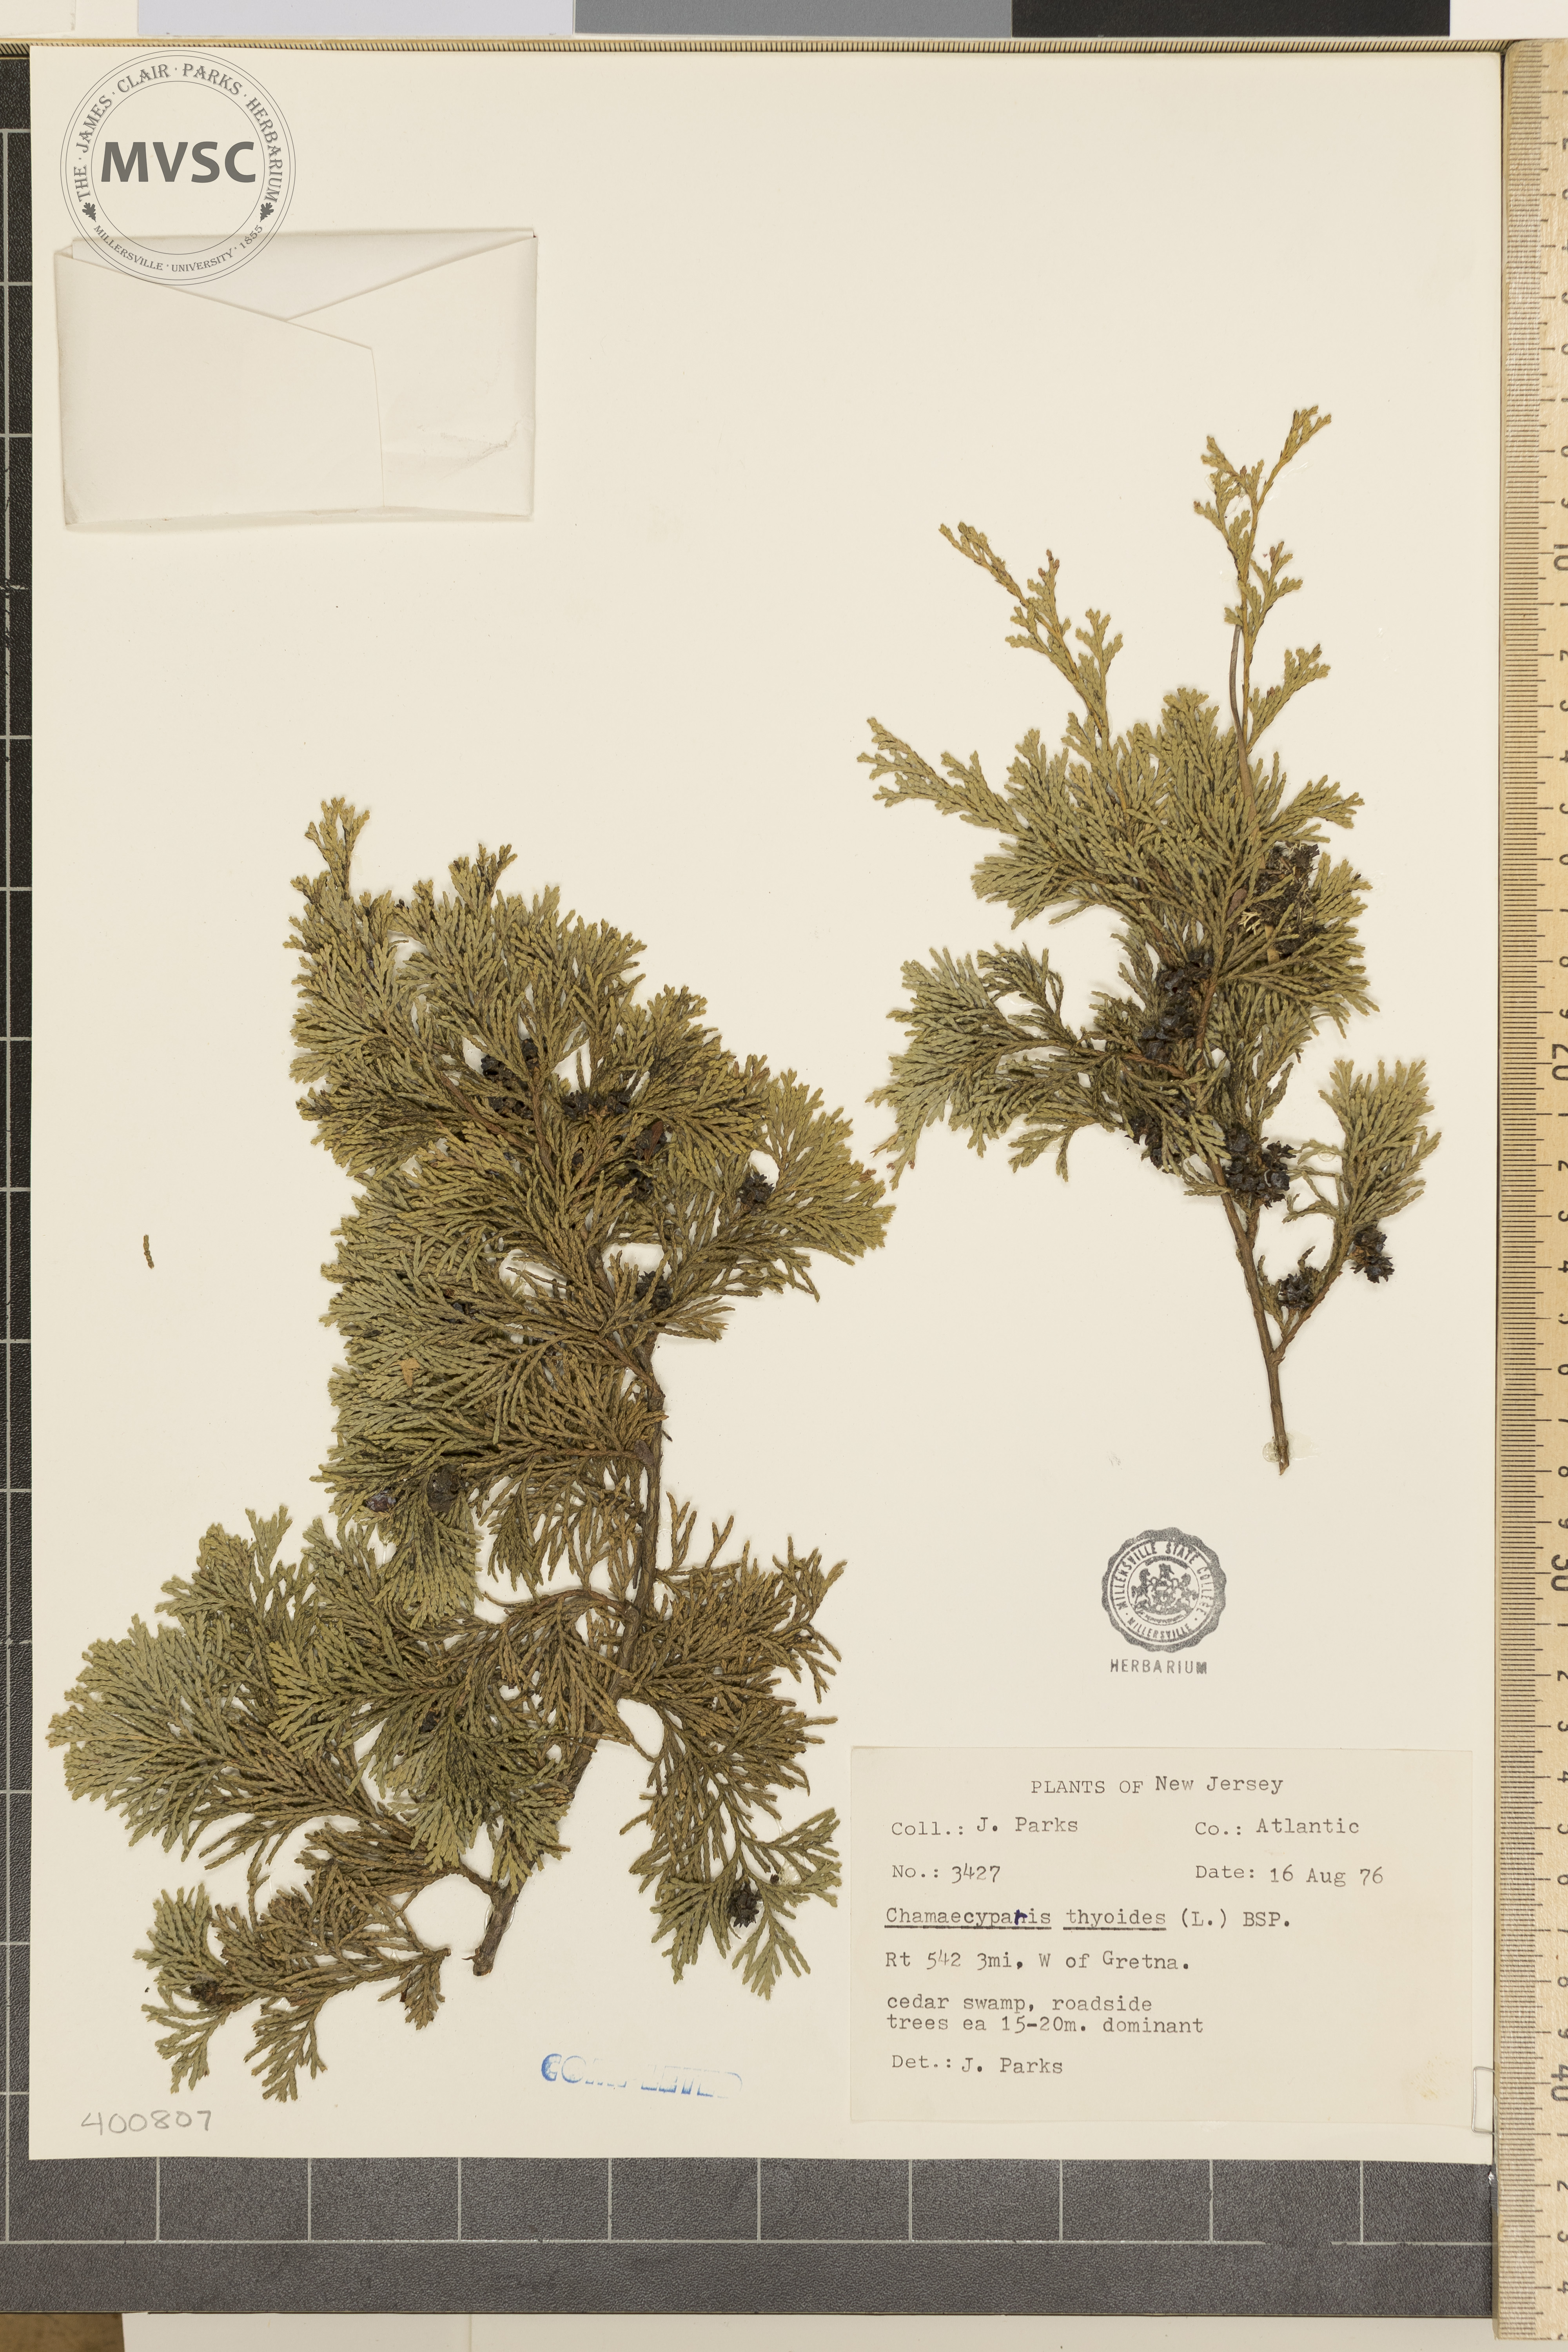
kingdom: Plantae
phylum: Tracheophyta
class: Pinopsida
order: Pinales
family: Cupressaceae
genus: Chamaecyparis
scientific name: Chamaecyparis thyoides
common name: Atlantic white cedar
